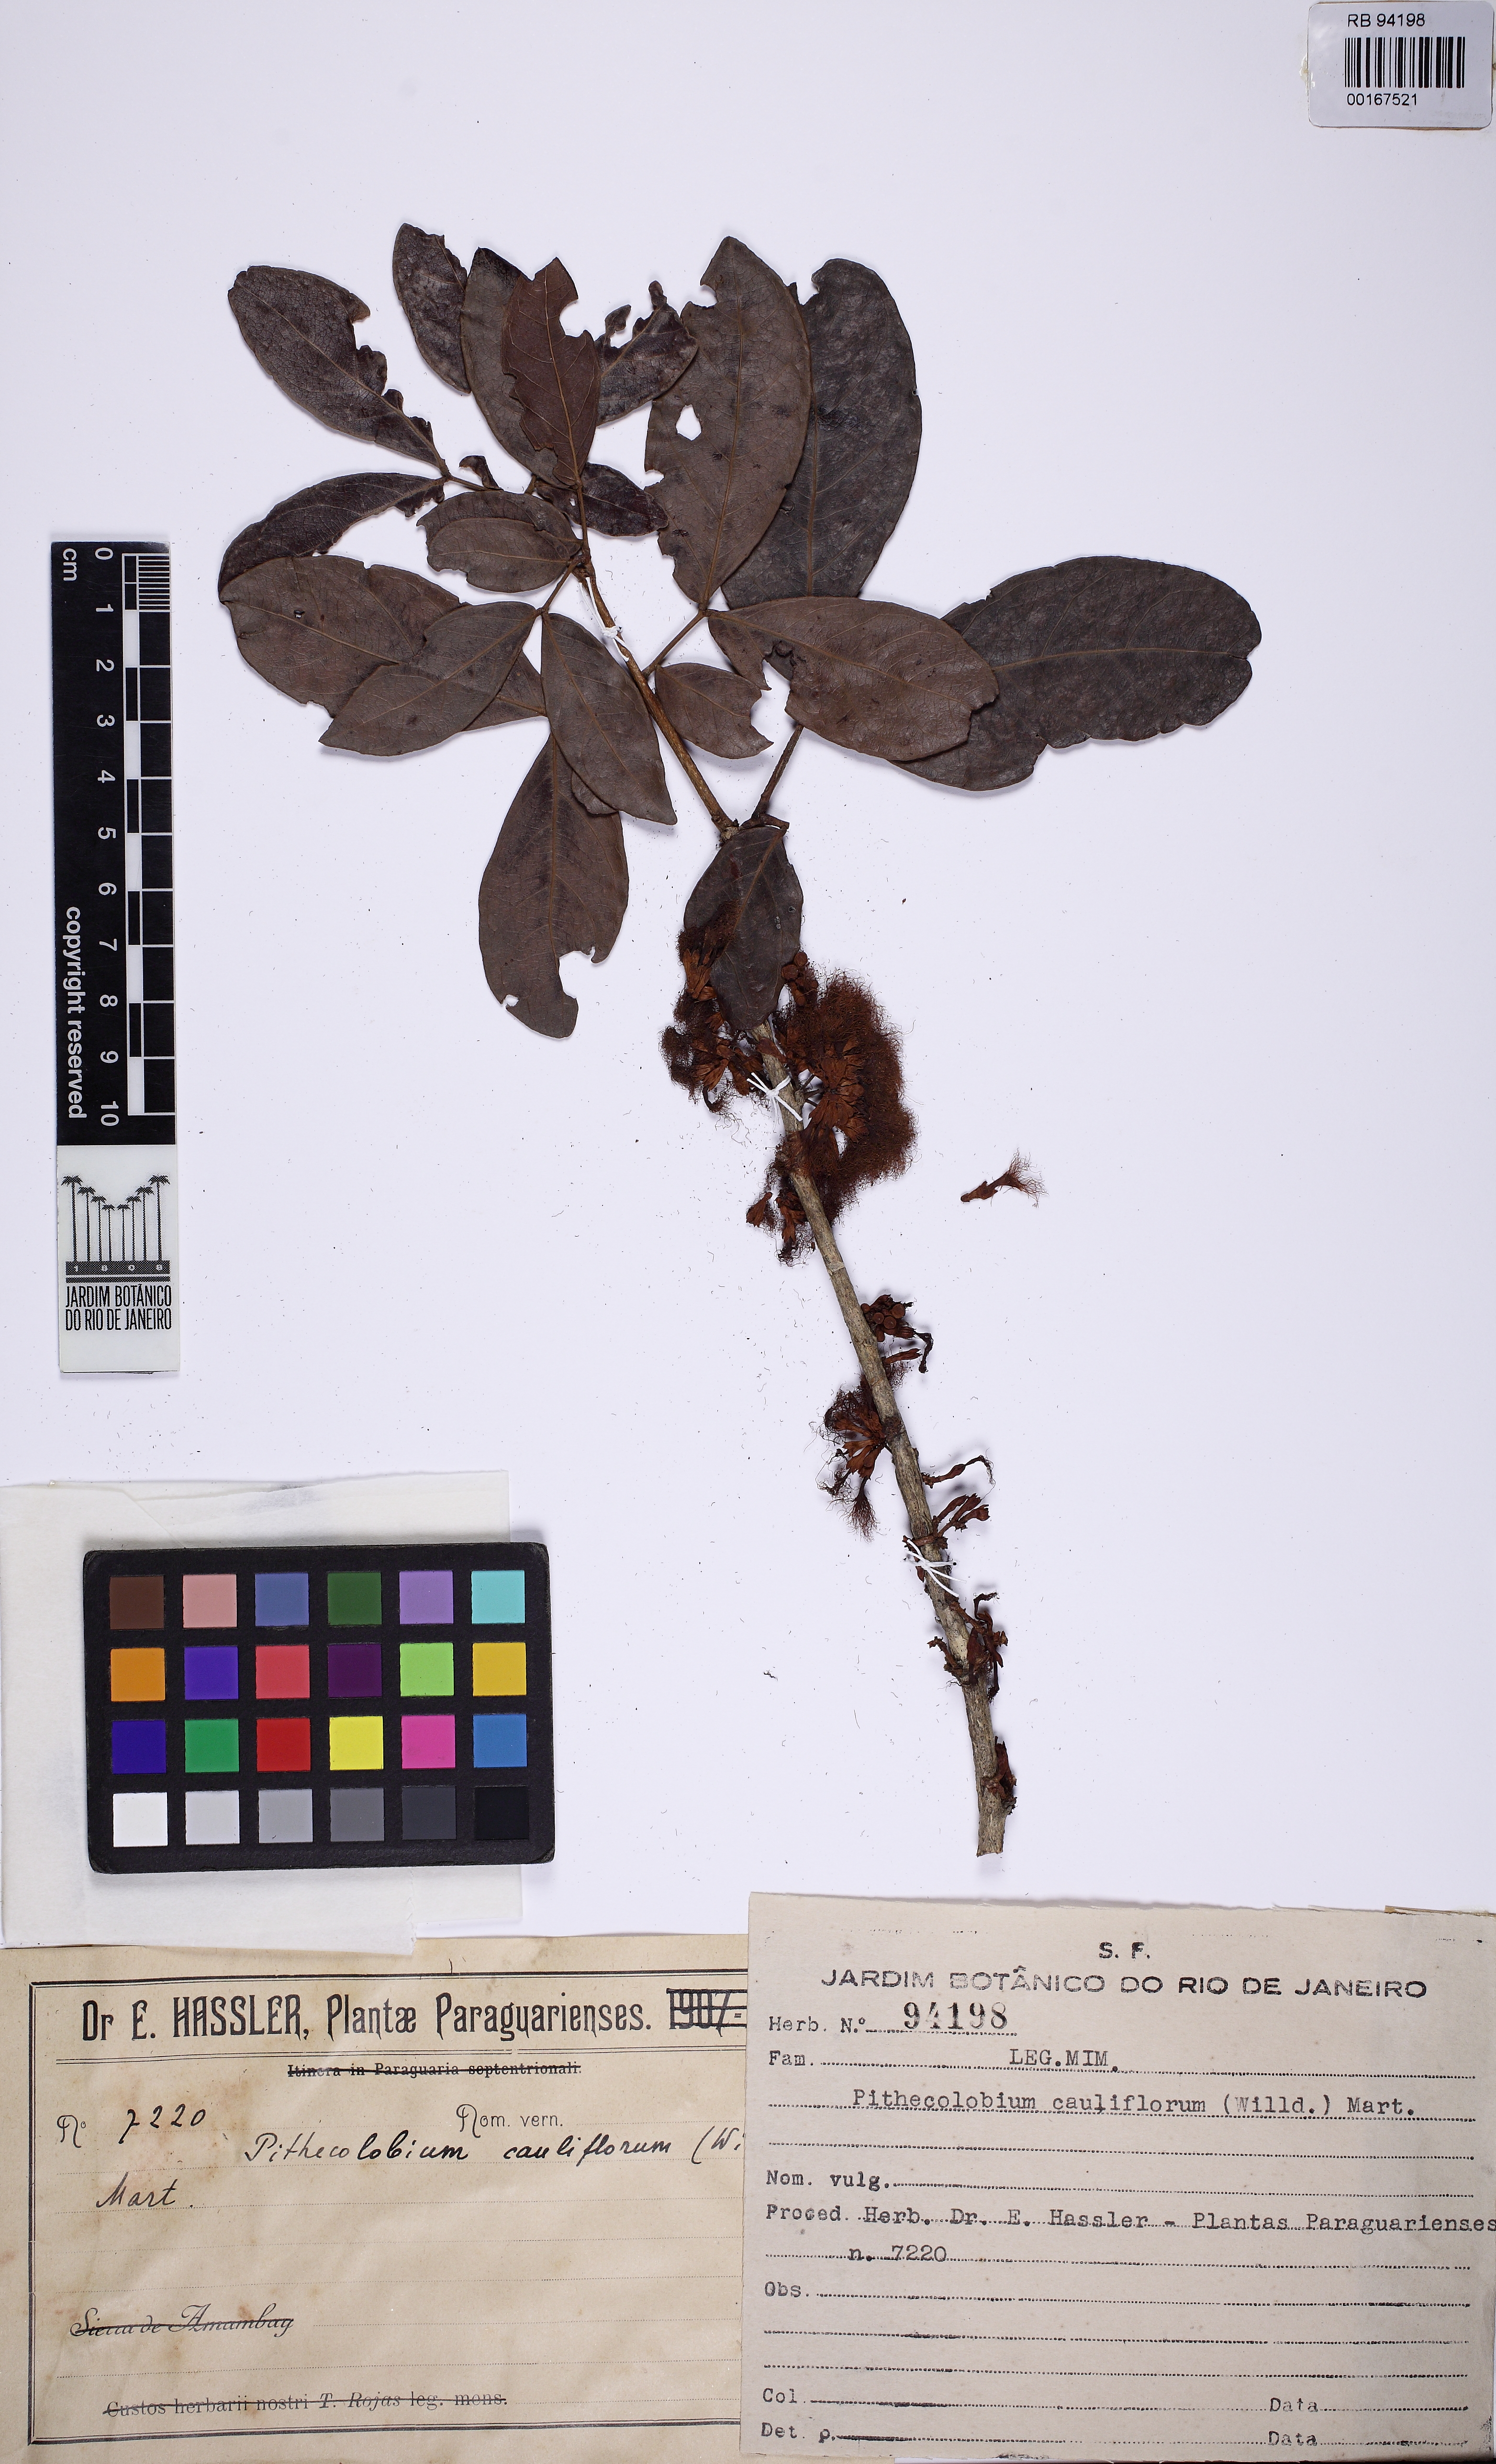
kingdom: Plantae
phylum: Tracheophyta
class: Magnoliopsida
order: Fabales
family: Fabaceae
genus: Zygia
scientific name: Zygia latifolia
